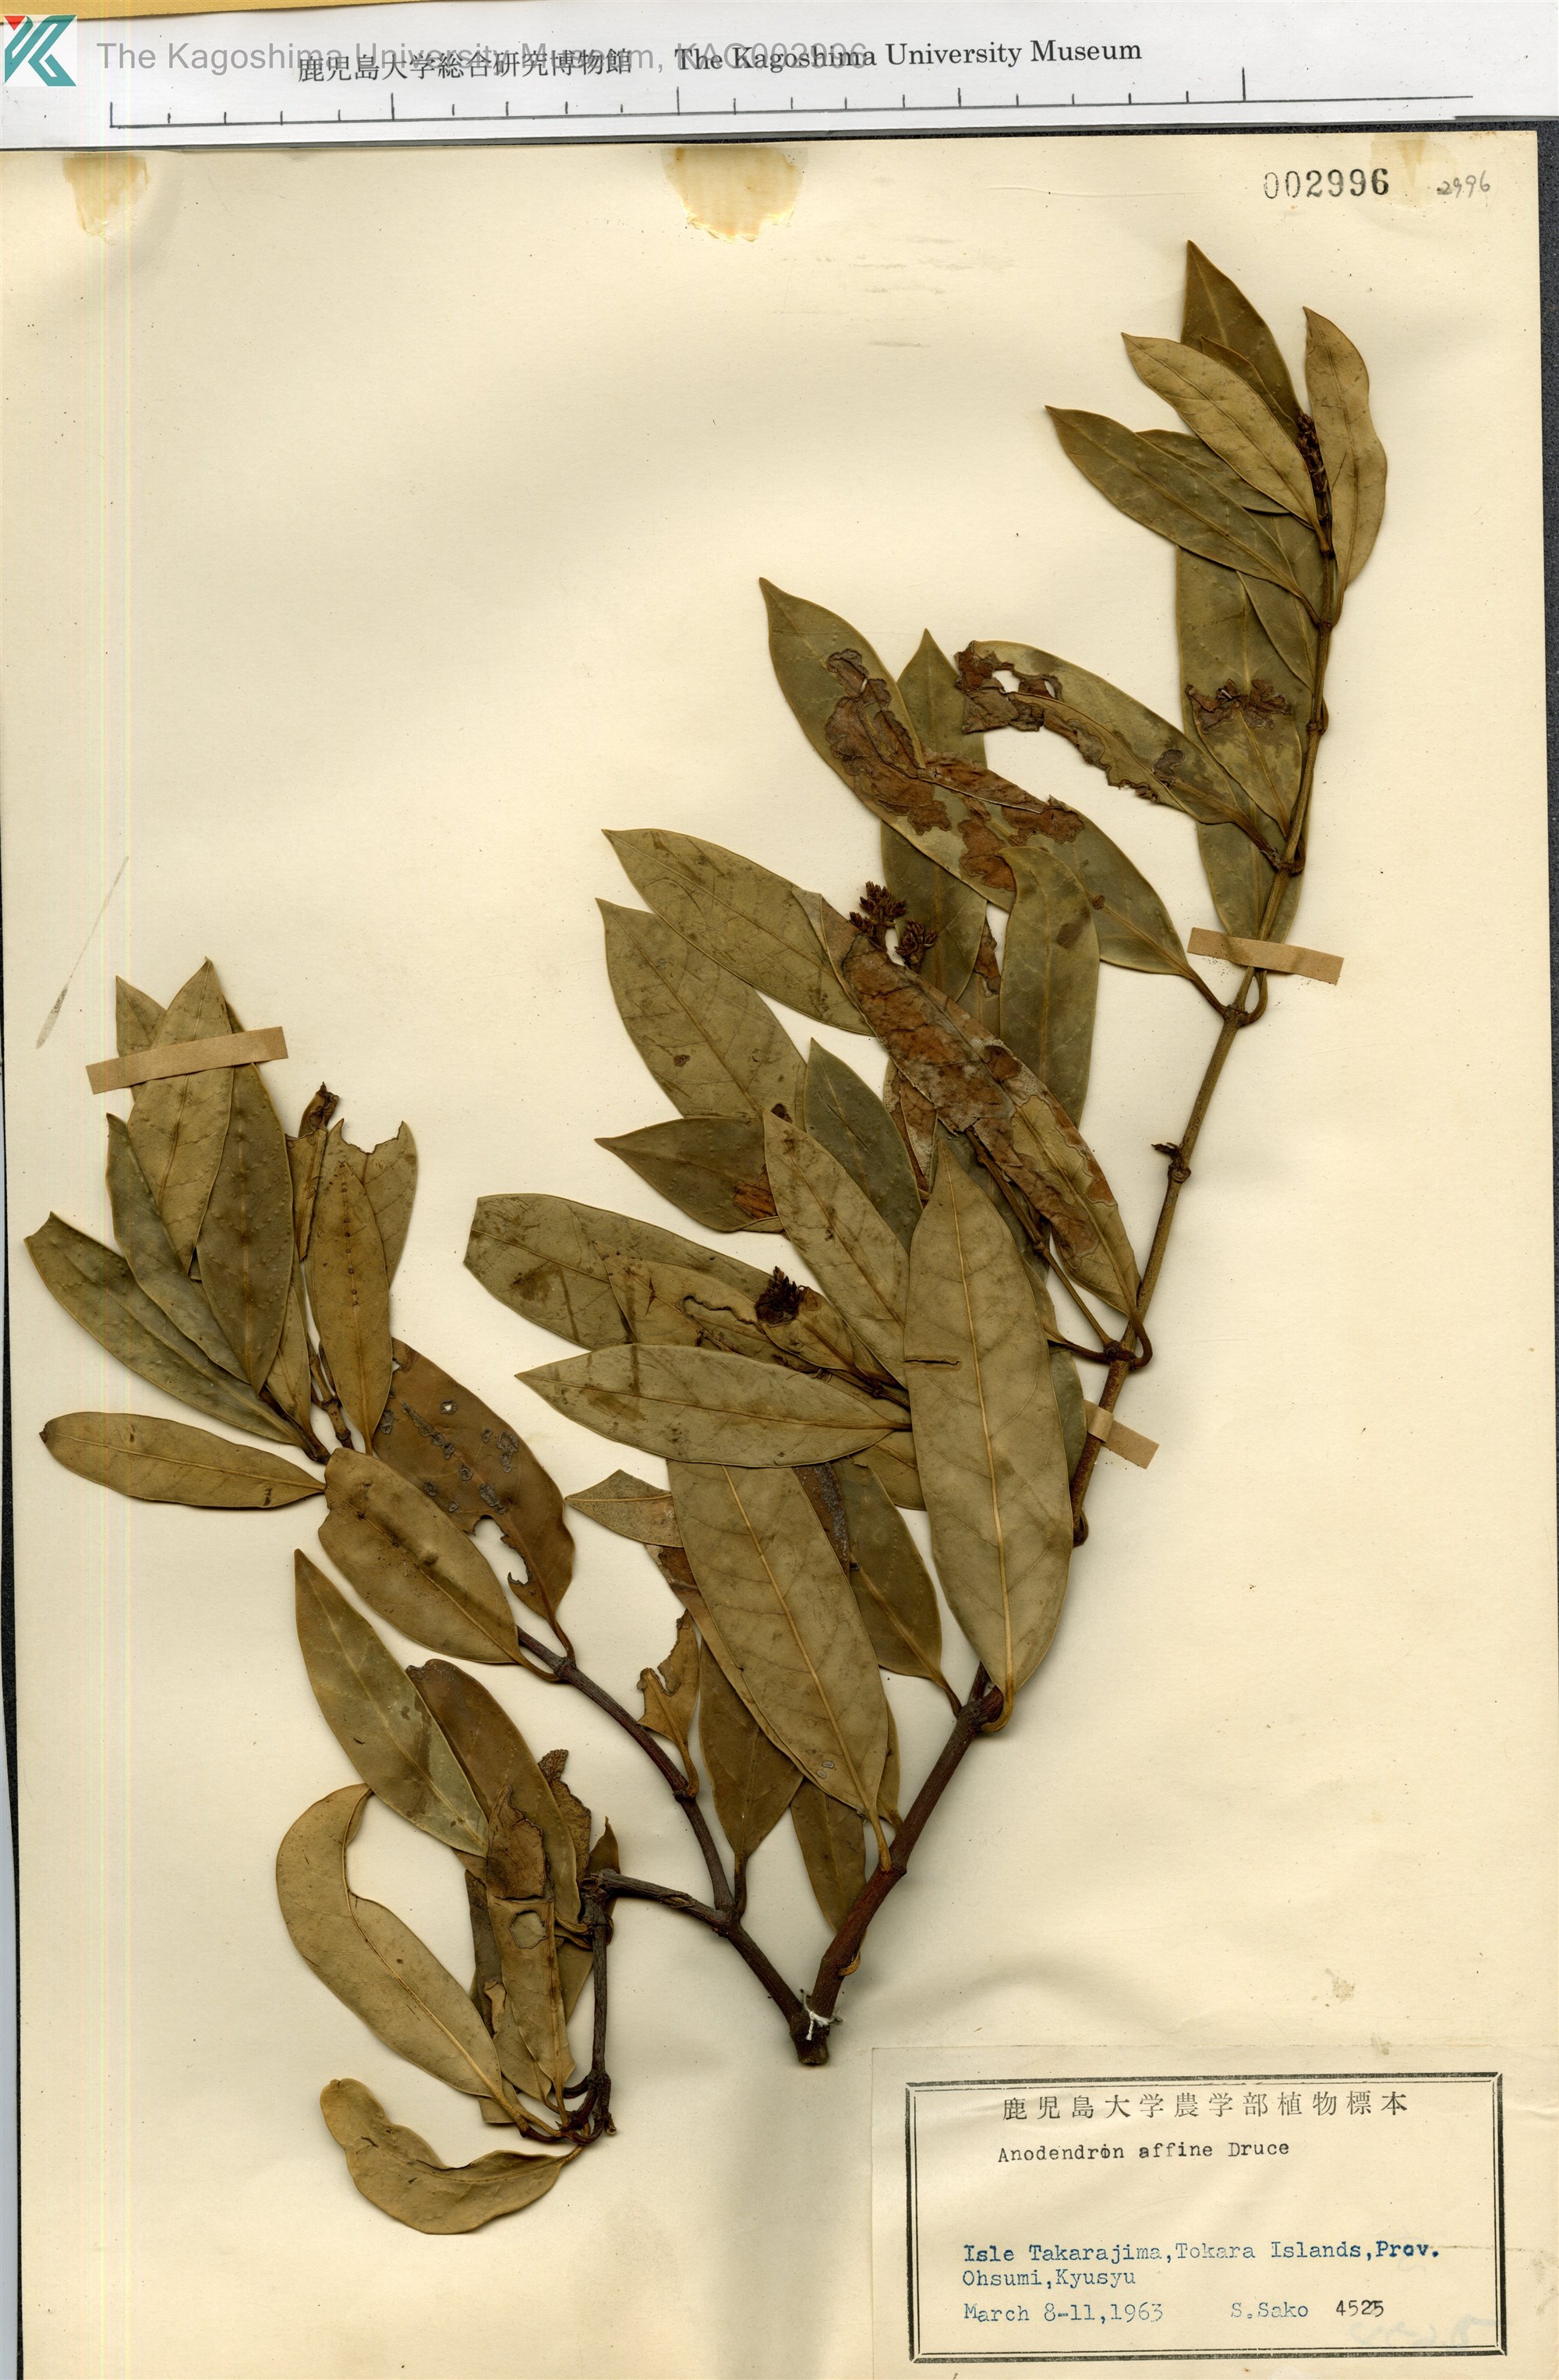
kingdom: Plantae
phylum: Tracheophyta
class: Magnoliopsida
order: Gentianales
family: Apocynaceae
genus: Anodendron
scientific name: Anodendron affine
